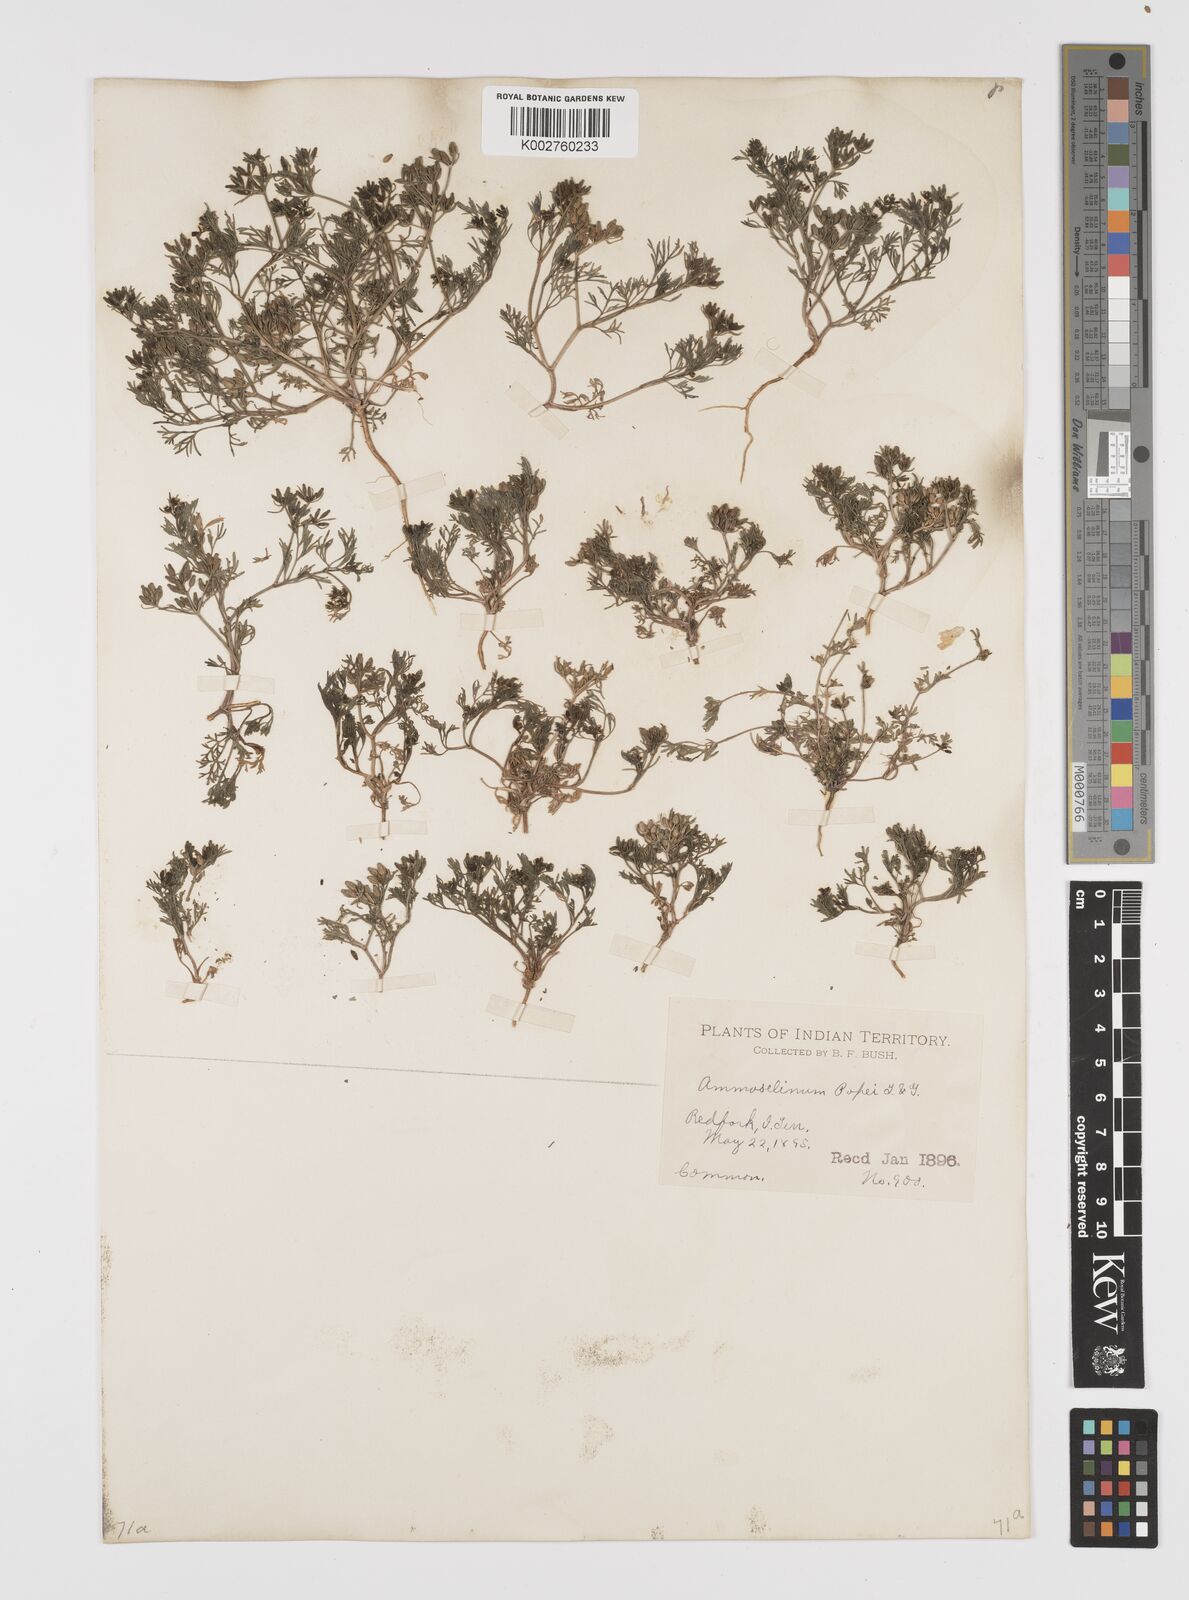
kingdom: Plantae
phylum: Tracheophyta
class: Magnoliopsida
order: Apiales
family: Apiaceae
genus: Ammoselinum
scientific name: Ammoselinum popei
